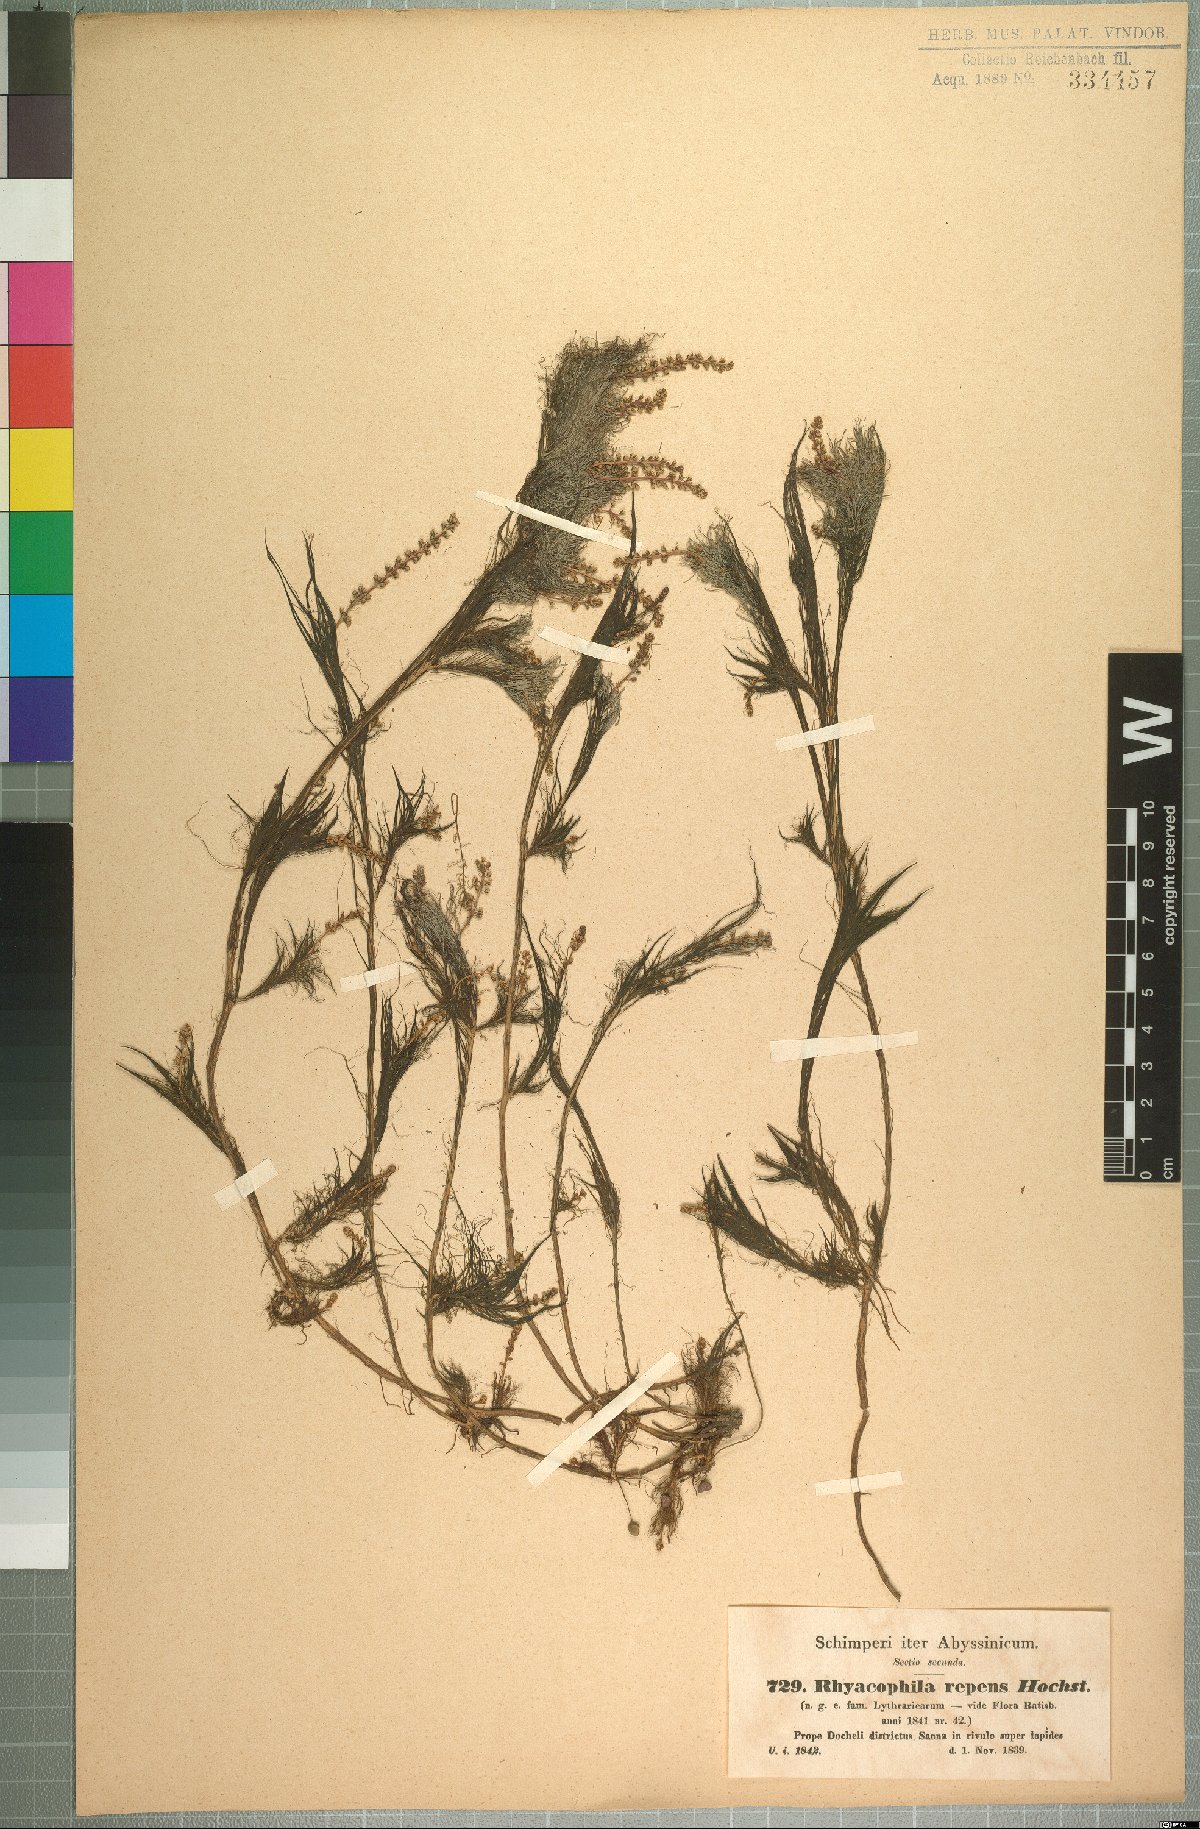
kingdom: Plantae
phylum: Tracheophyta
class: Magnoliopsida
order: Myrtales
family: Lythraceae
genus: Rotala
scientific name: Rotala repens
